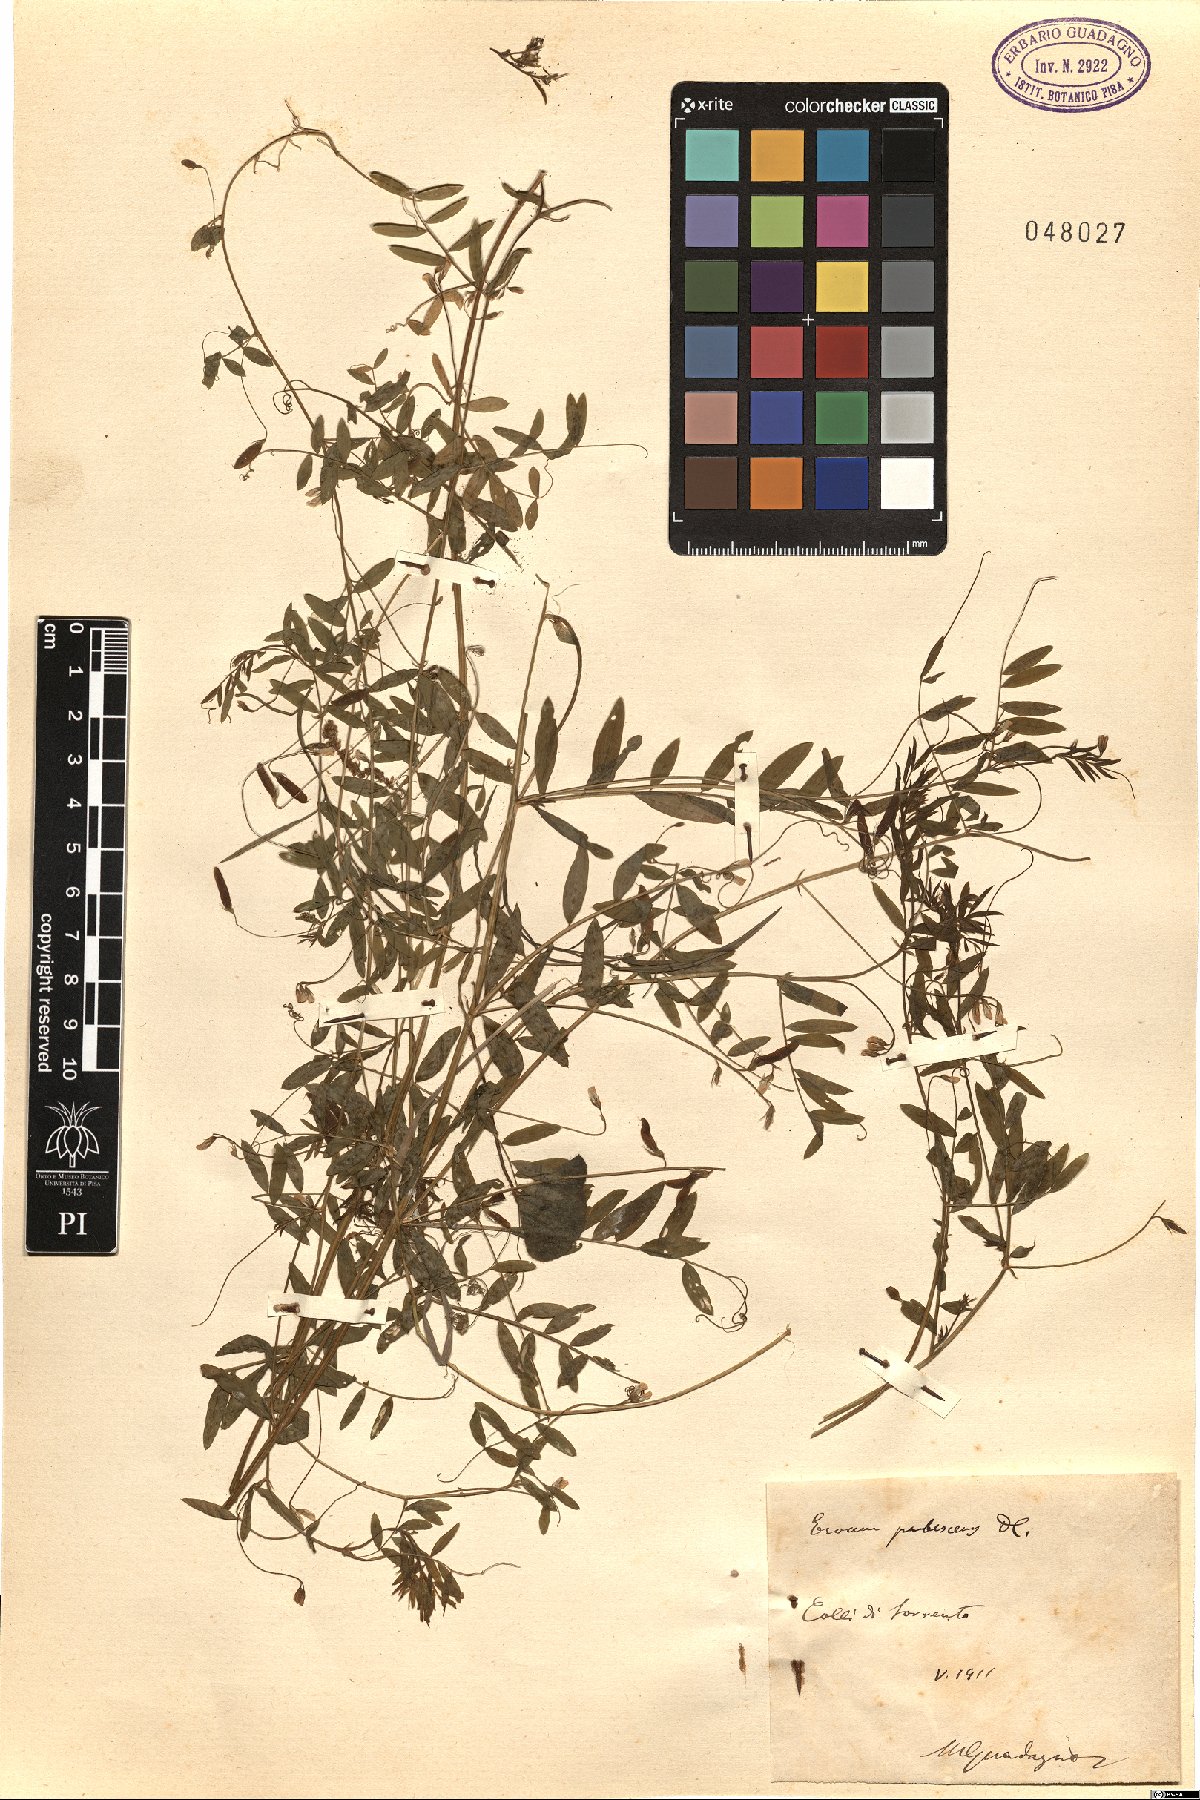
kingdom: Plantae
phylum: Tracheophyta
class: Magnoliopsida
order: Fabales
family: Fabaceae
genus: Vicia
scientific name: Vicia pubescens
